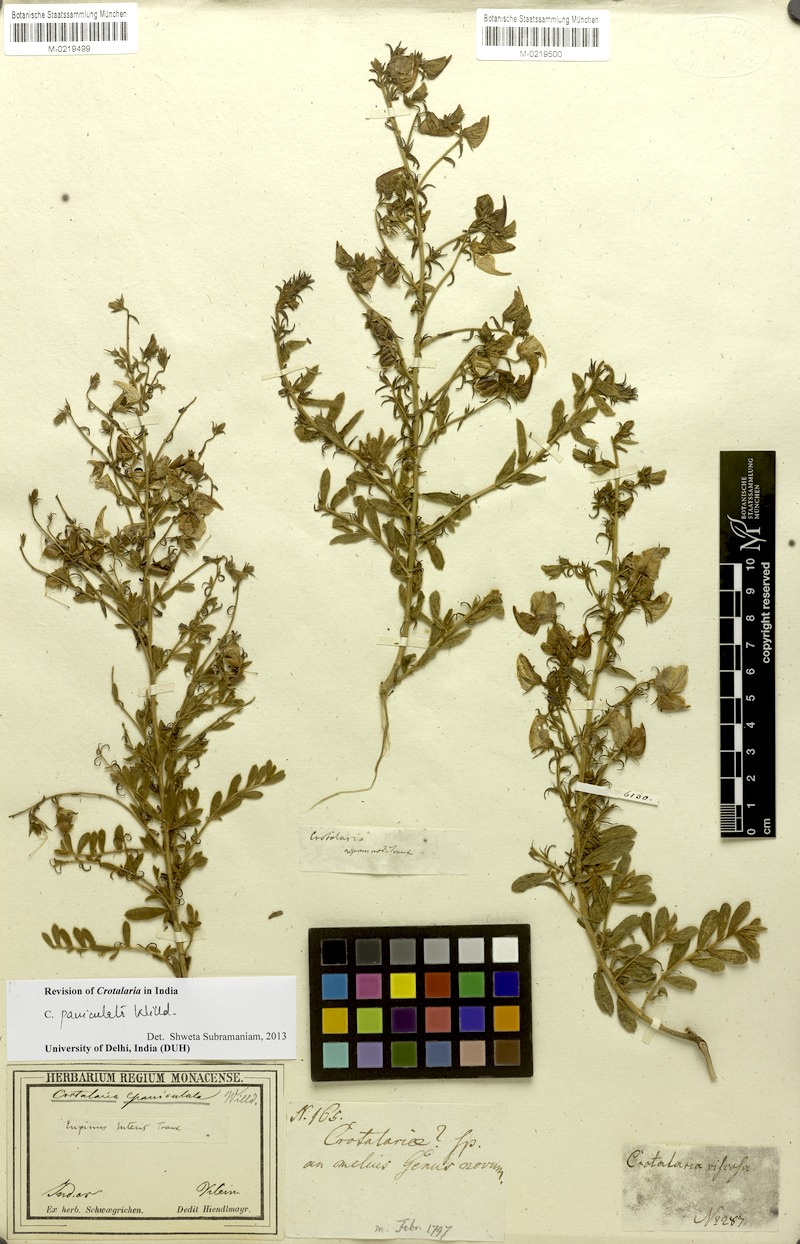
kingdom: Plantae
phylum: Tracheophyta
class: Magnoliopsida
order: Fabales
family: Fabaceae
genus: Crotalaria
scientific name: Crotalaria paniculata
